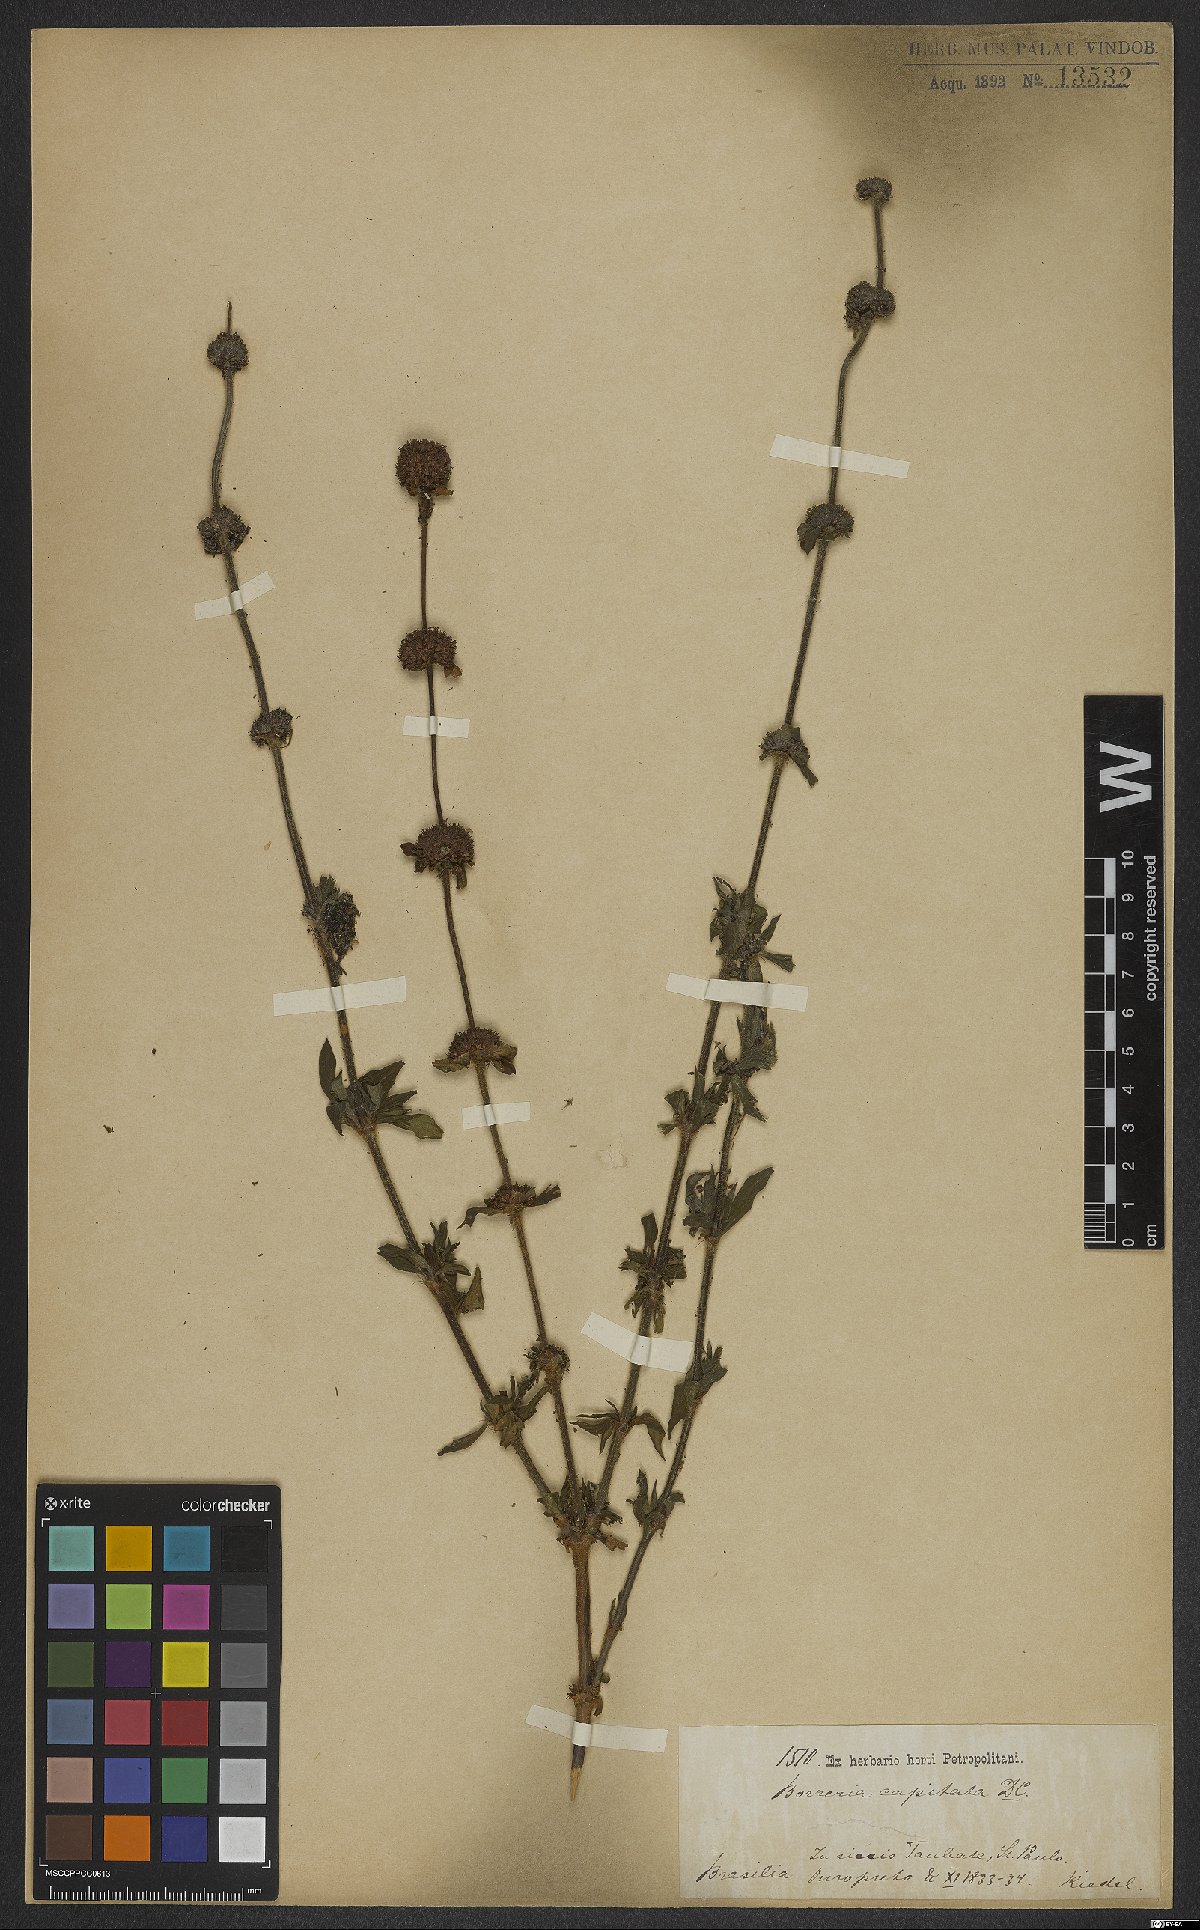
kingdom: Plantae
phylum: Tracheophyta
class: Magnoliopsida
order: Gentianales
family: Rubiaceae
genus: Spermacoce
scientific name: Spermacoce capitata
